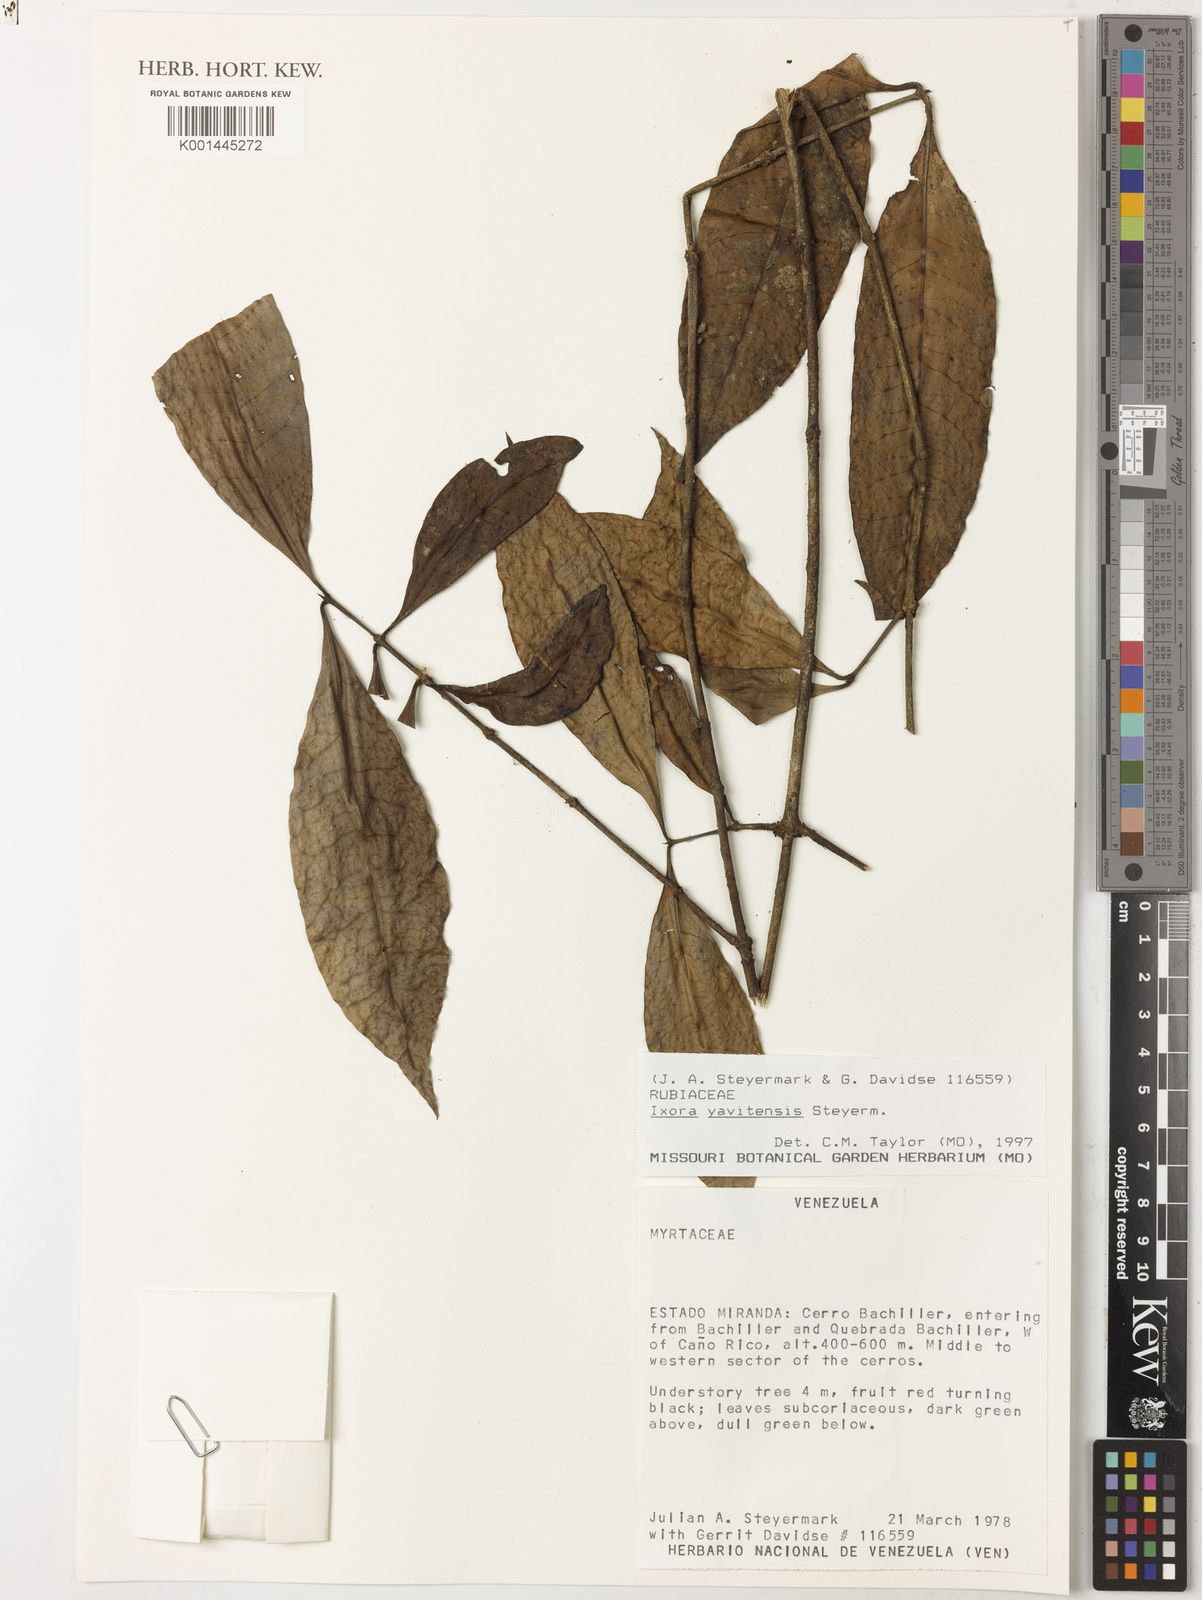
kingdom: Plantae
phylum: Tracheophyta
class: Magnoliopsida
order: Gentianales
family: Rubiaceae
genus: Ixora
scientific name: Ixora yavitensis
